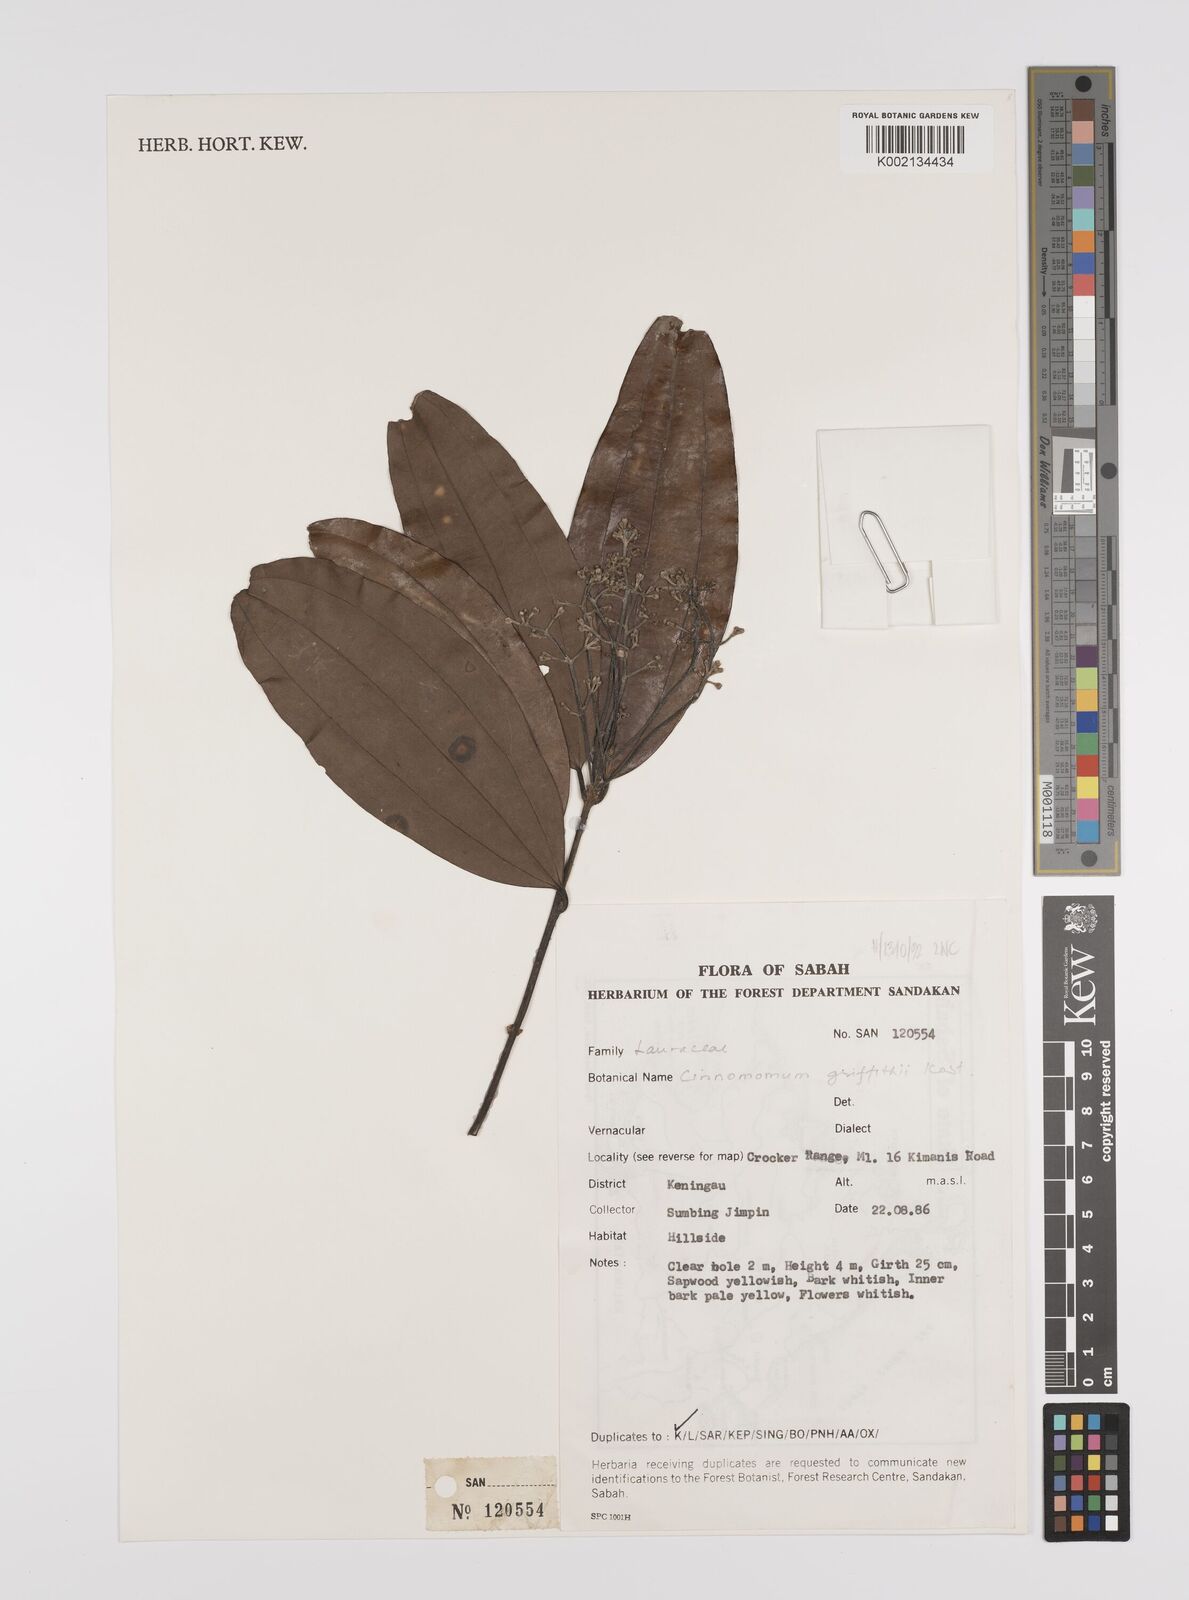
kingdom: Plantae
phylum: Tracheophyta
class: Magnoliopsida
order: Laurales
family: Lauraceae
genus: Cinnamomum
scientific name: Cinnamomum iners
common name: Wild cinnamon
